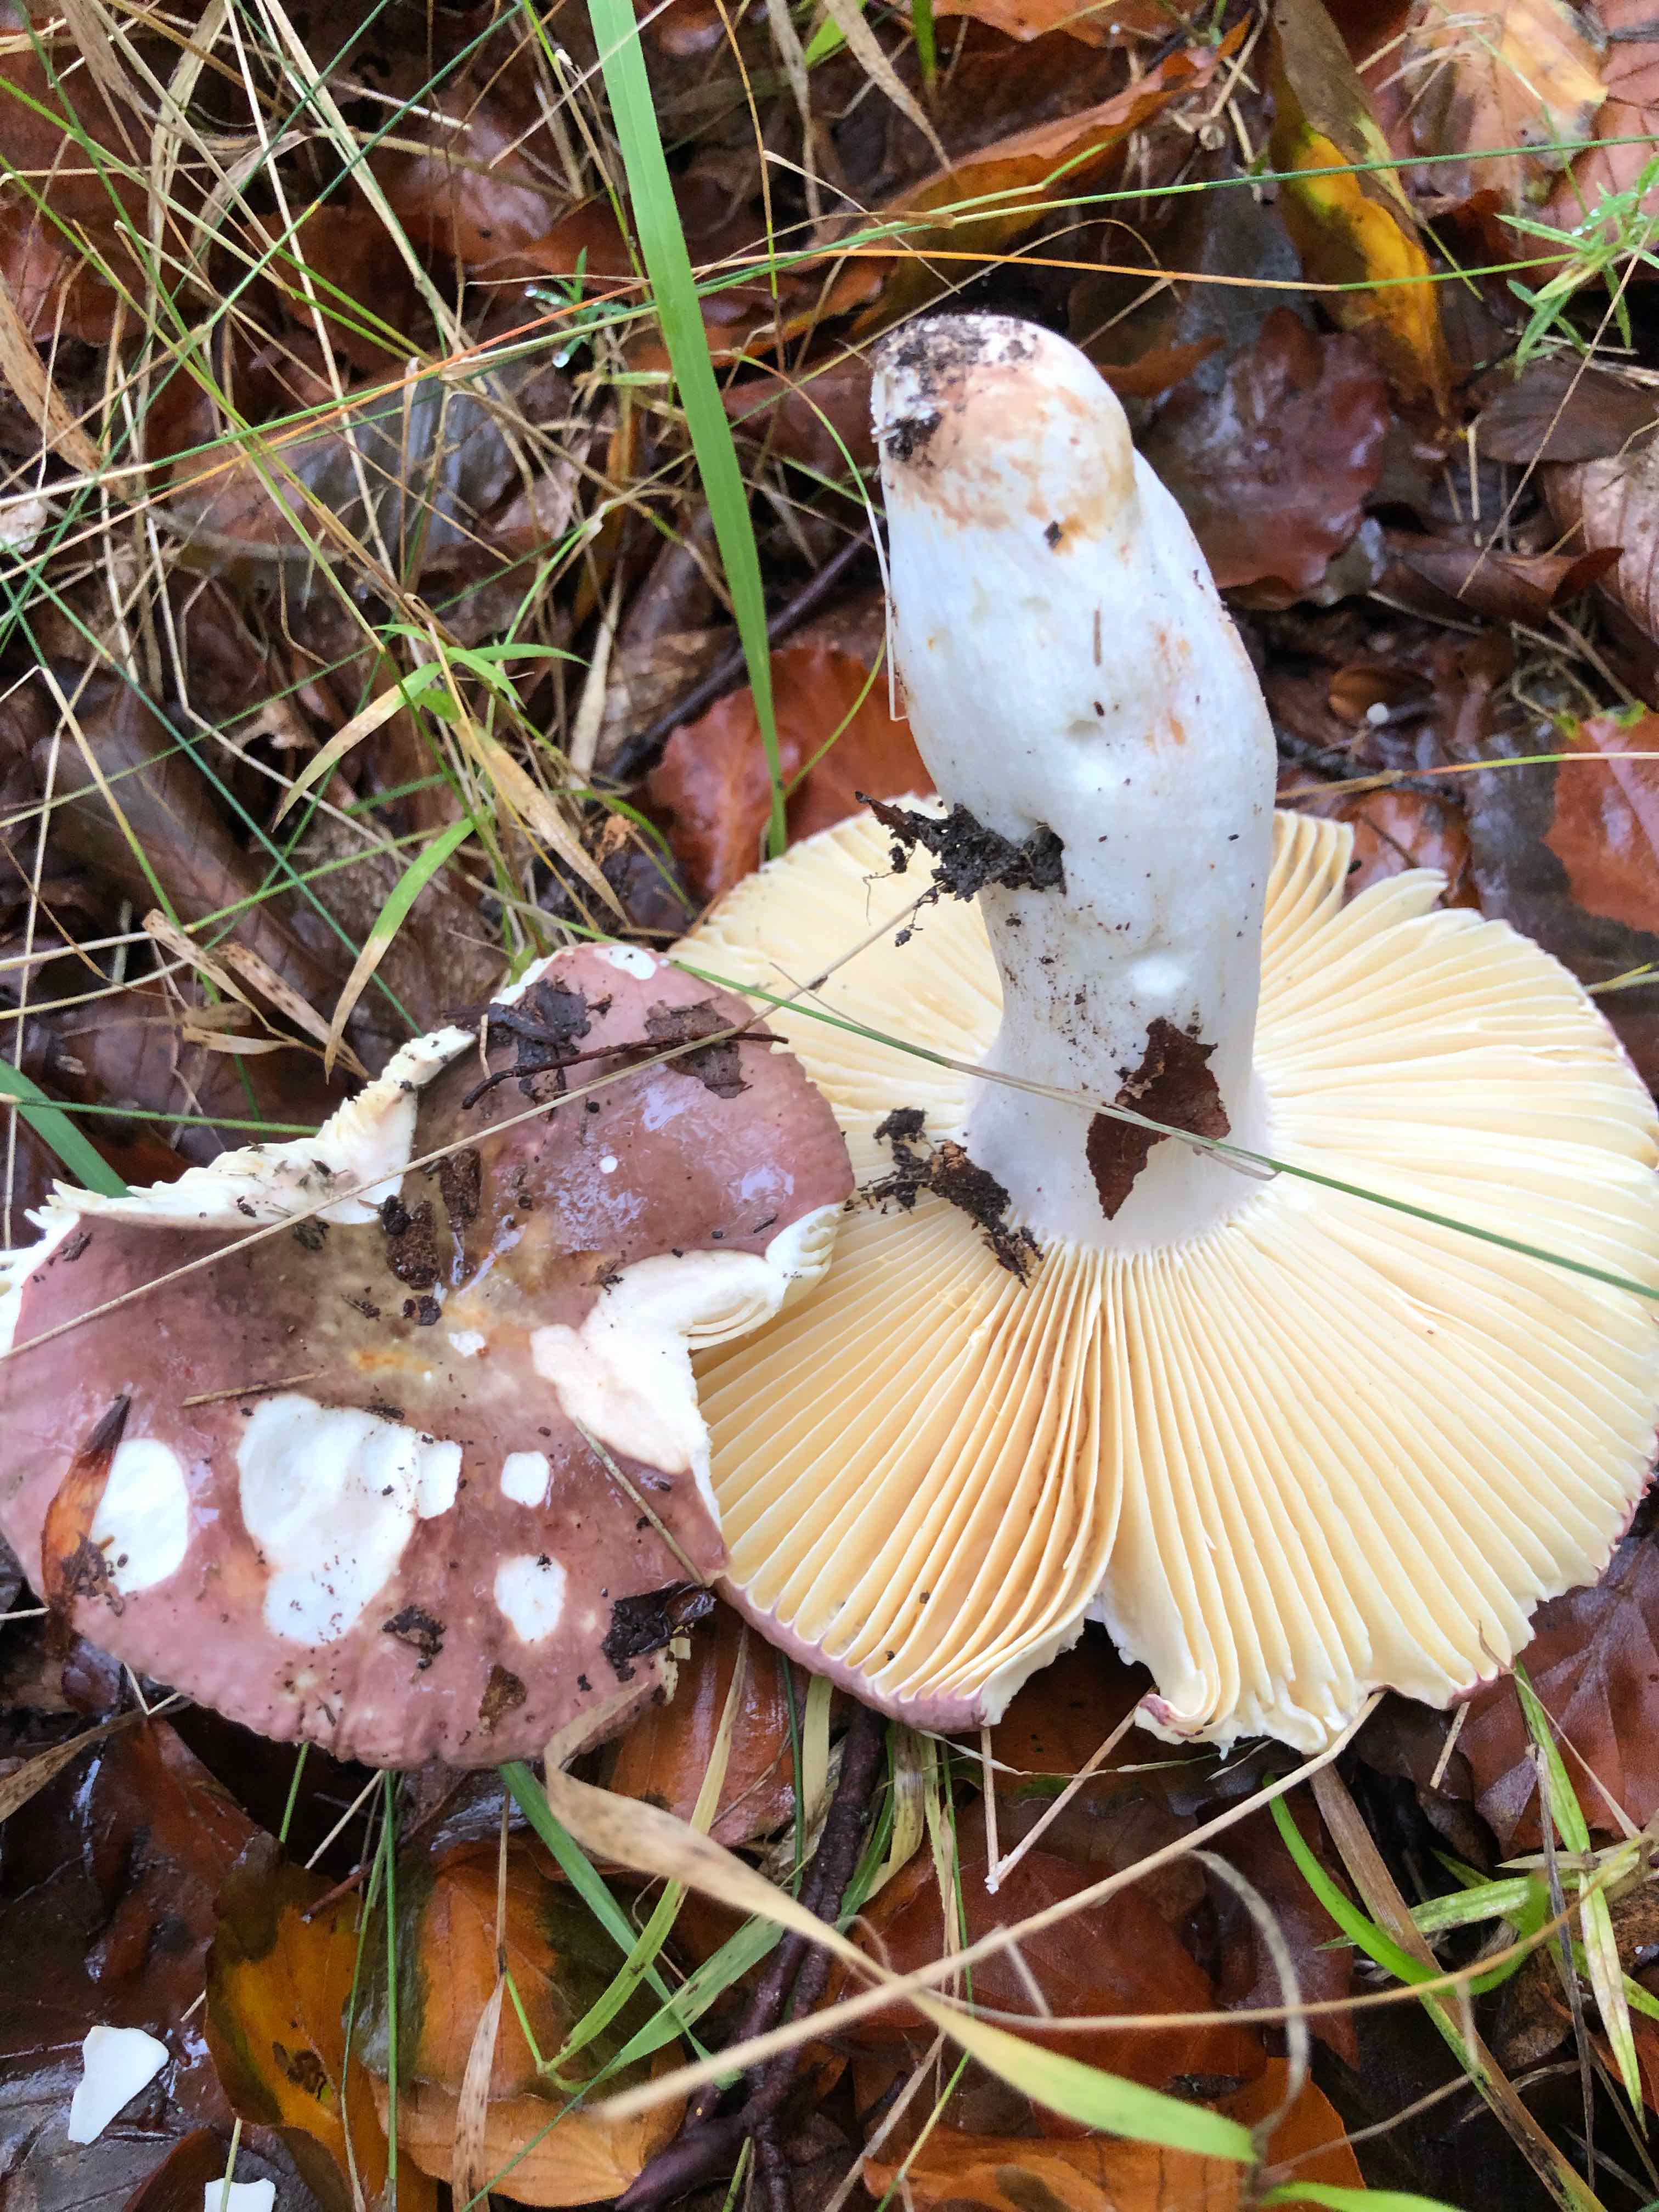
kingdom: Fungi
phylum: Basidiomycota
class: Agaricomycetes
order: Russulales
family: Russulaceae
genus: Russula
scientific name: Russula olivacea
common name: stor skørhat
